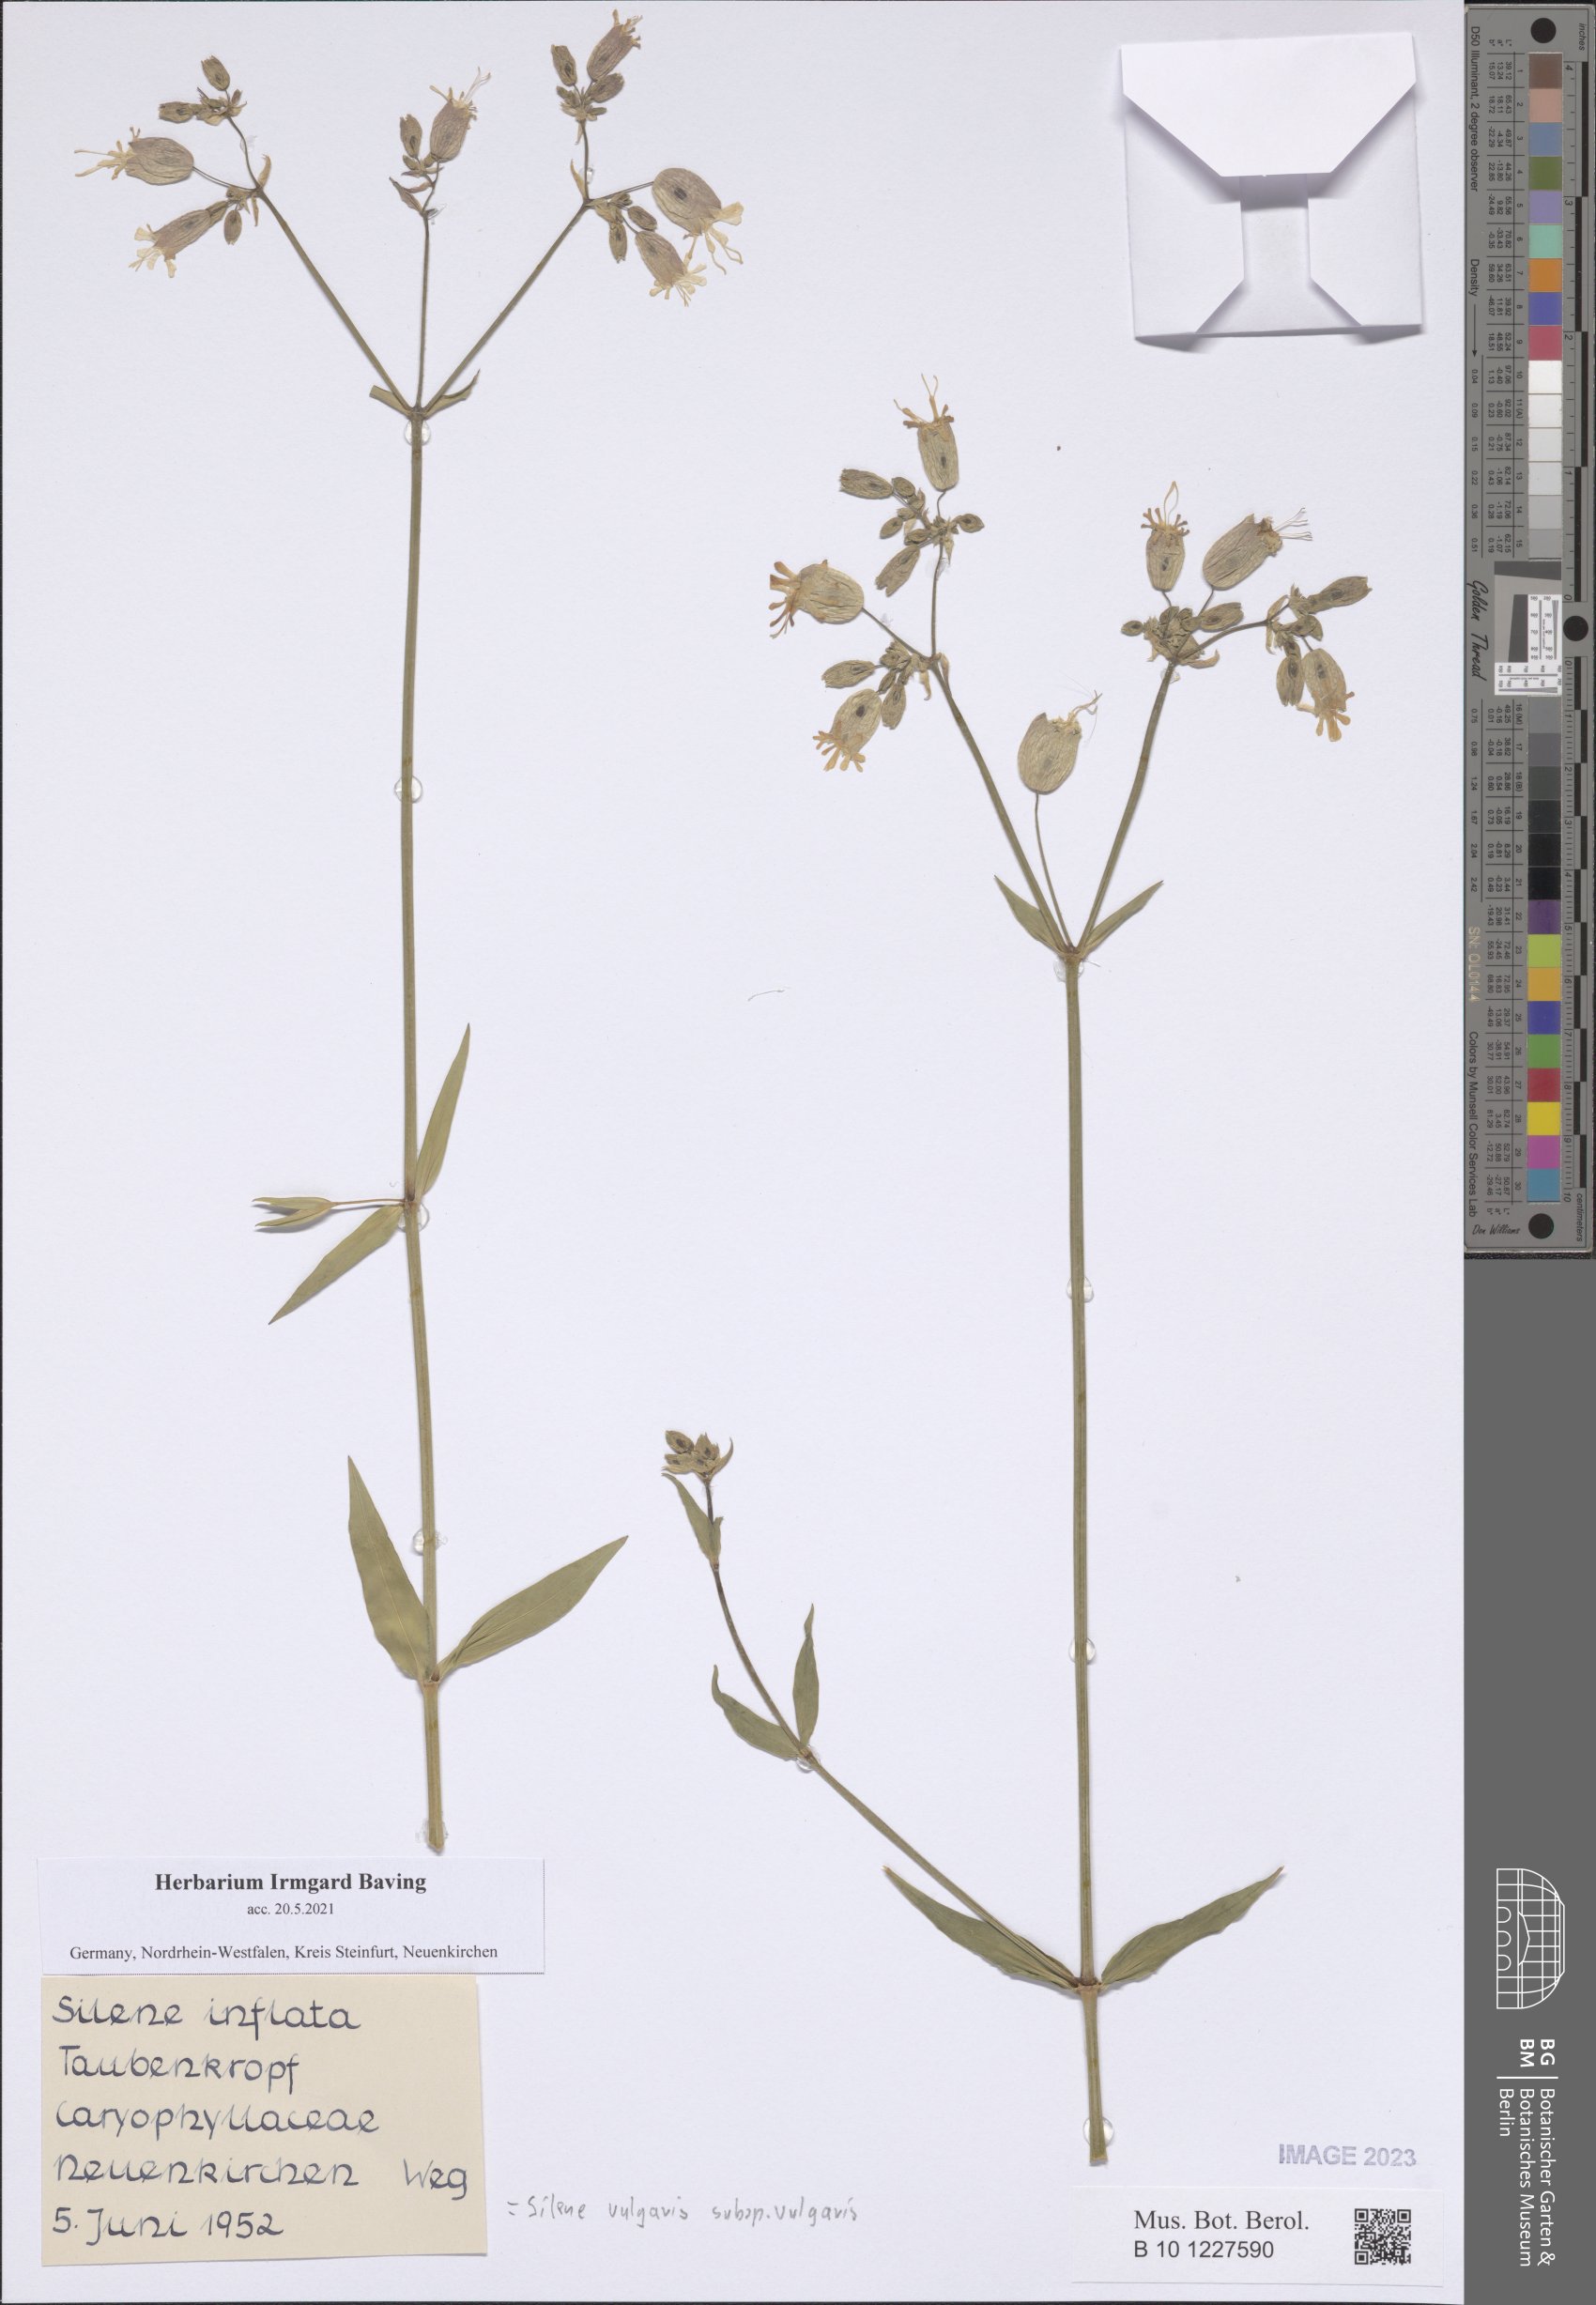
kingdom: Plantae
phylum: Tracheophyta
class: Magnoliopsida
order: Caryophyllales
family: Caryophyllaceae
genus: Silene
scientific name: Silene vulgaris
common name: Bladder campion
